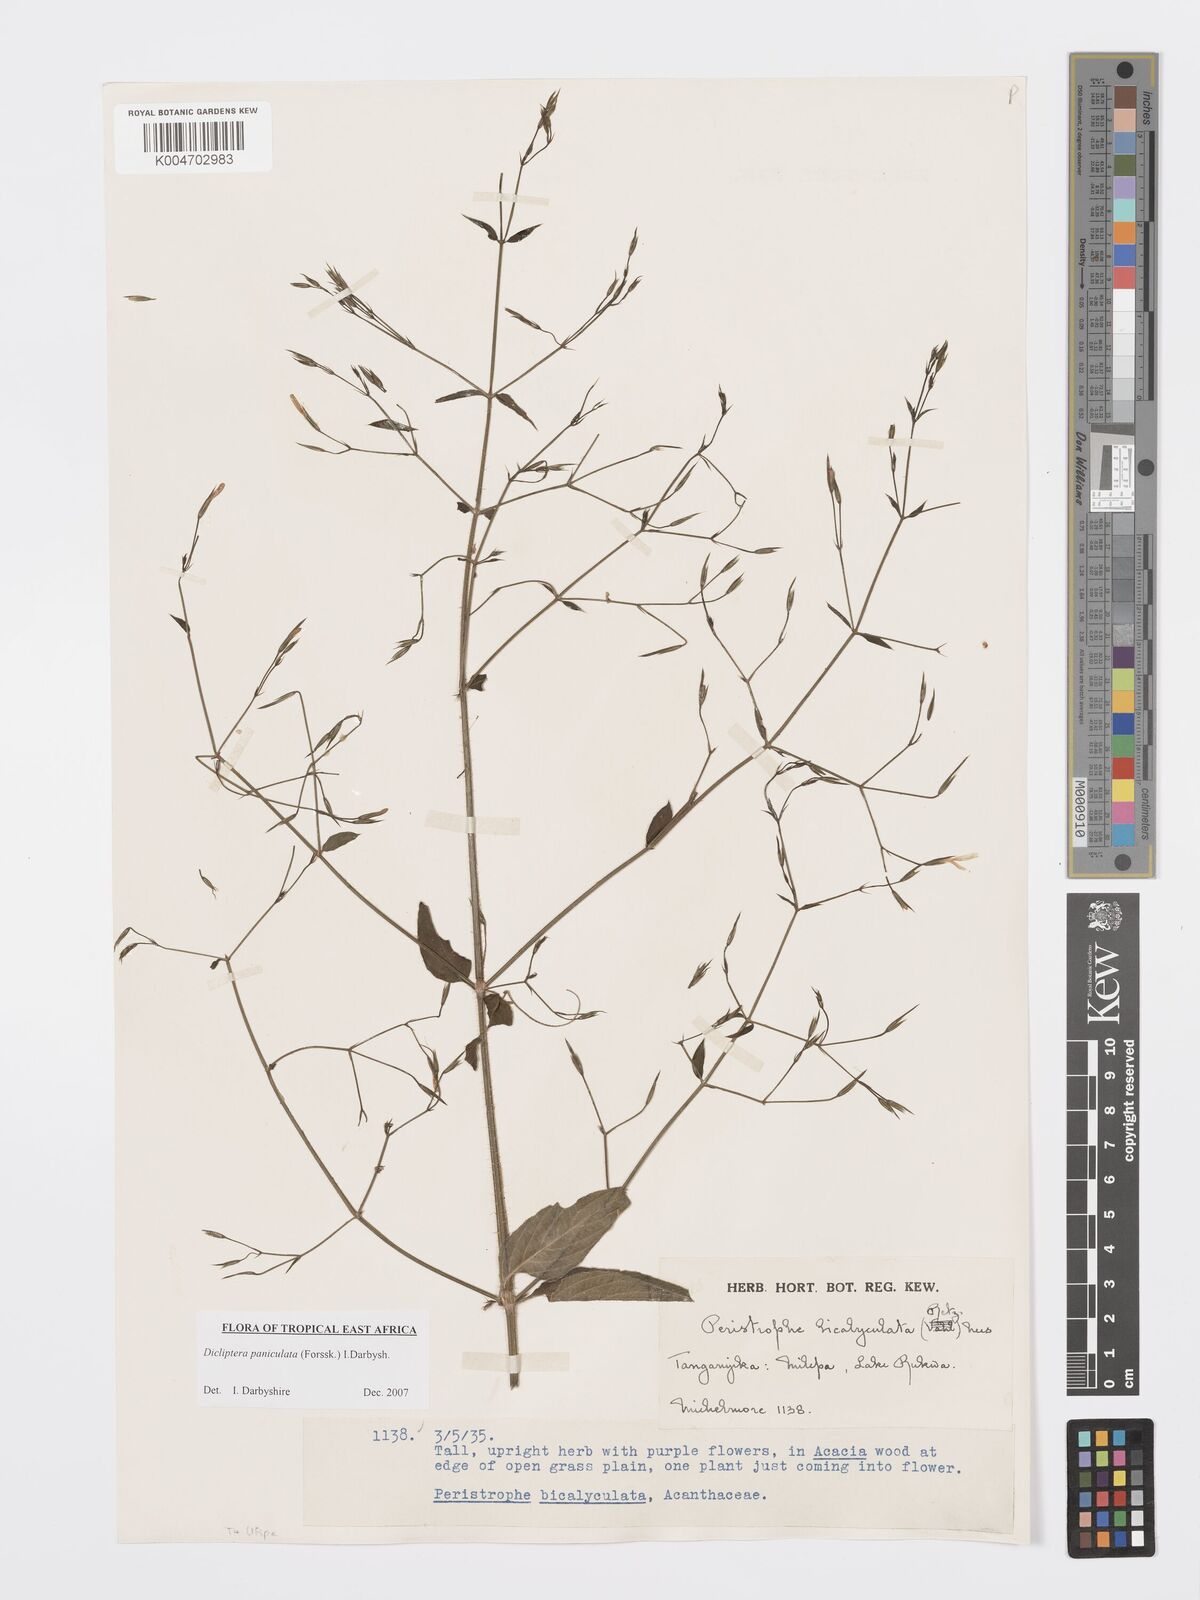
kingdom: Plantae
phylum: Tracheophyta
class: Magnoliopsida
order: Lamiales
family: Acanthaceae
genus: Dicliptera
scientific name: Dicliptera paniculata
